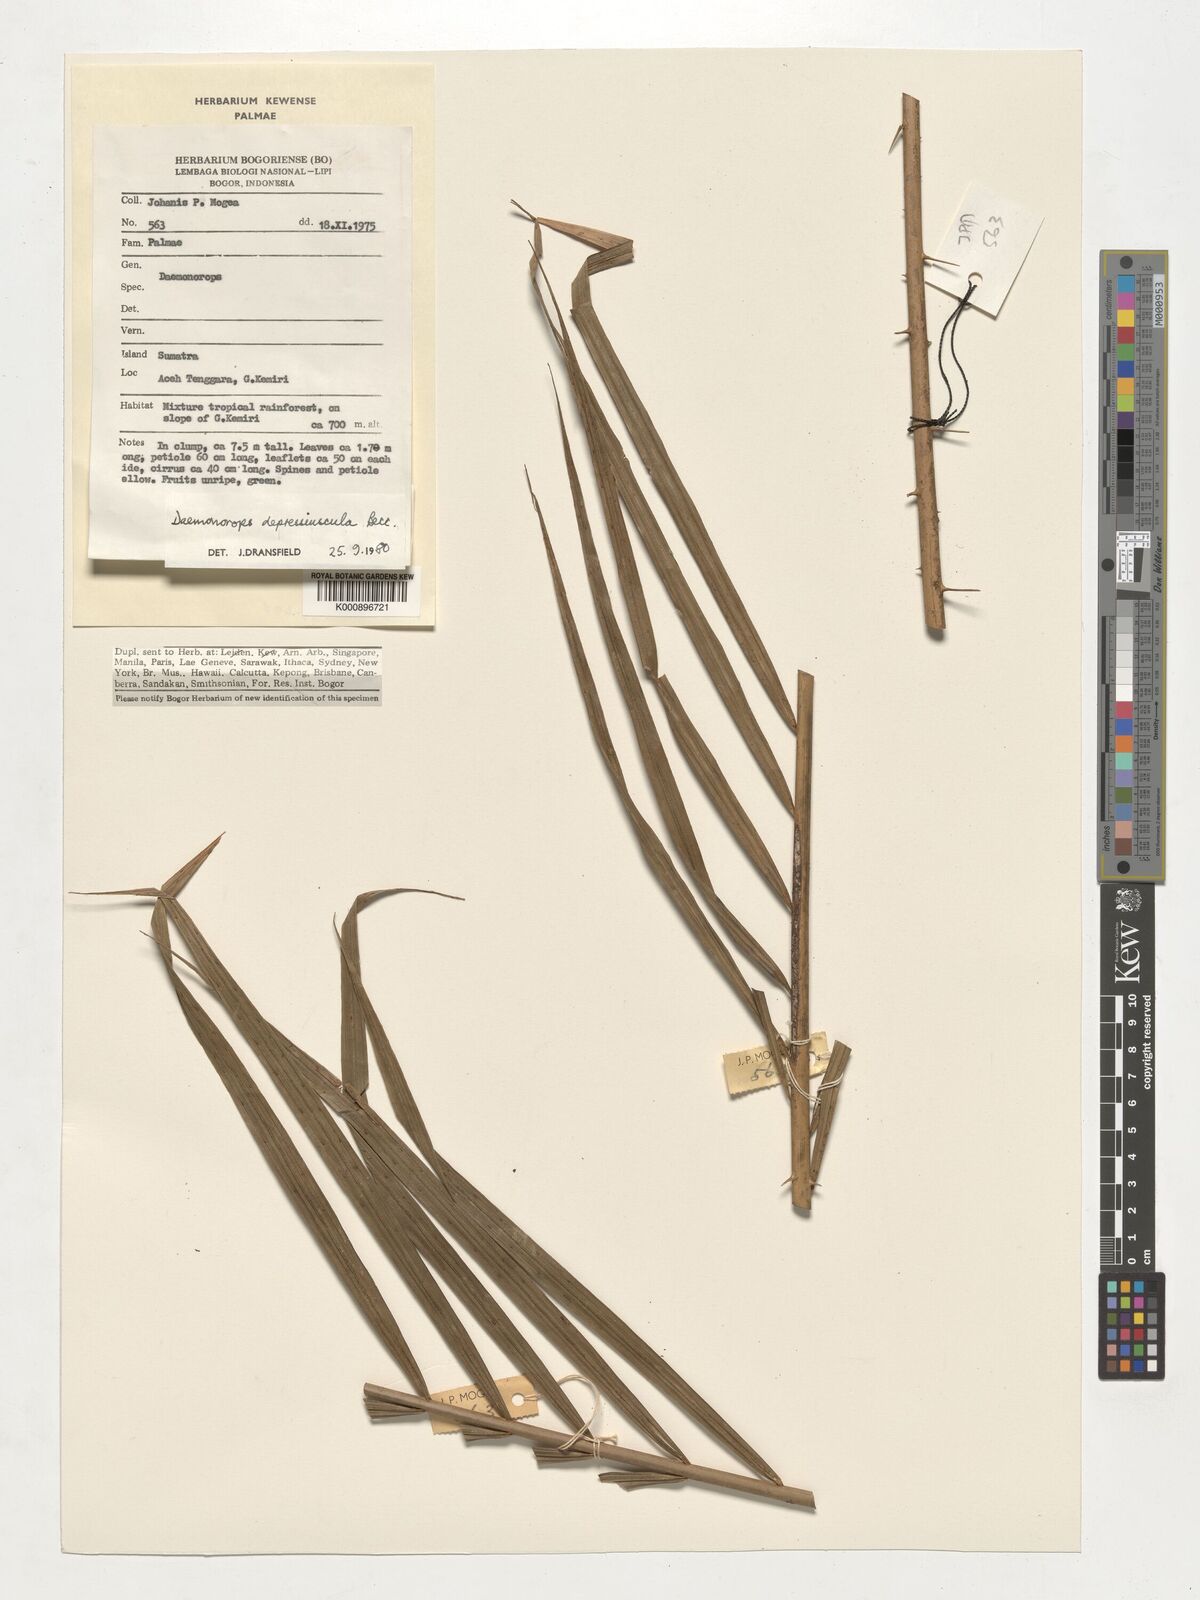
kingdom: Plantae
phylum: Tracheophyta
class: Liliopsida
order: Arecales
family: Arecaceae
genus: Daemonorops
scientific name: Daemonorops
